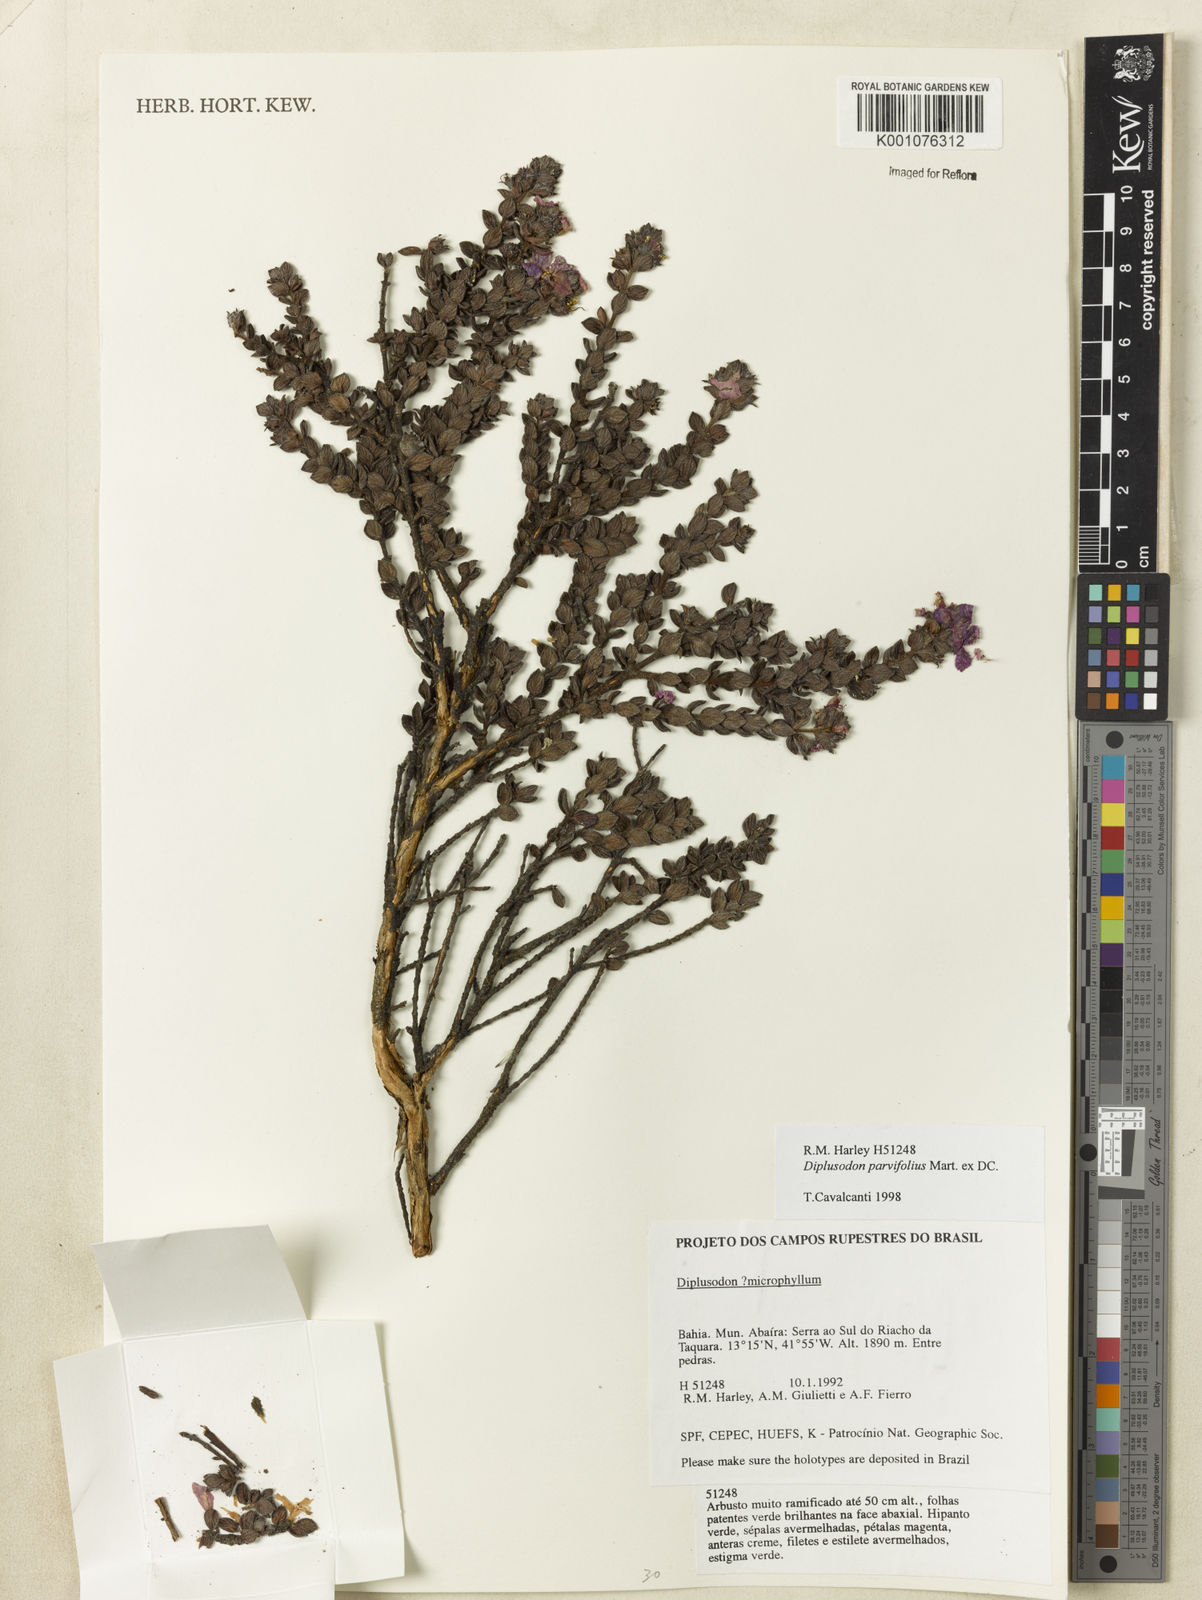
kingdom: Plantae
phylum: Tracheophyta
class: Magnoliopsida
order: Myrtales
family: Lythraceae
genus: Diplusodon
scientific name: Diplusodon parvifolius
